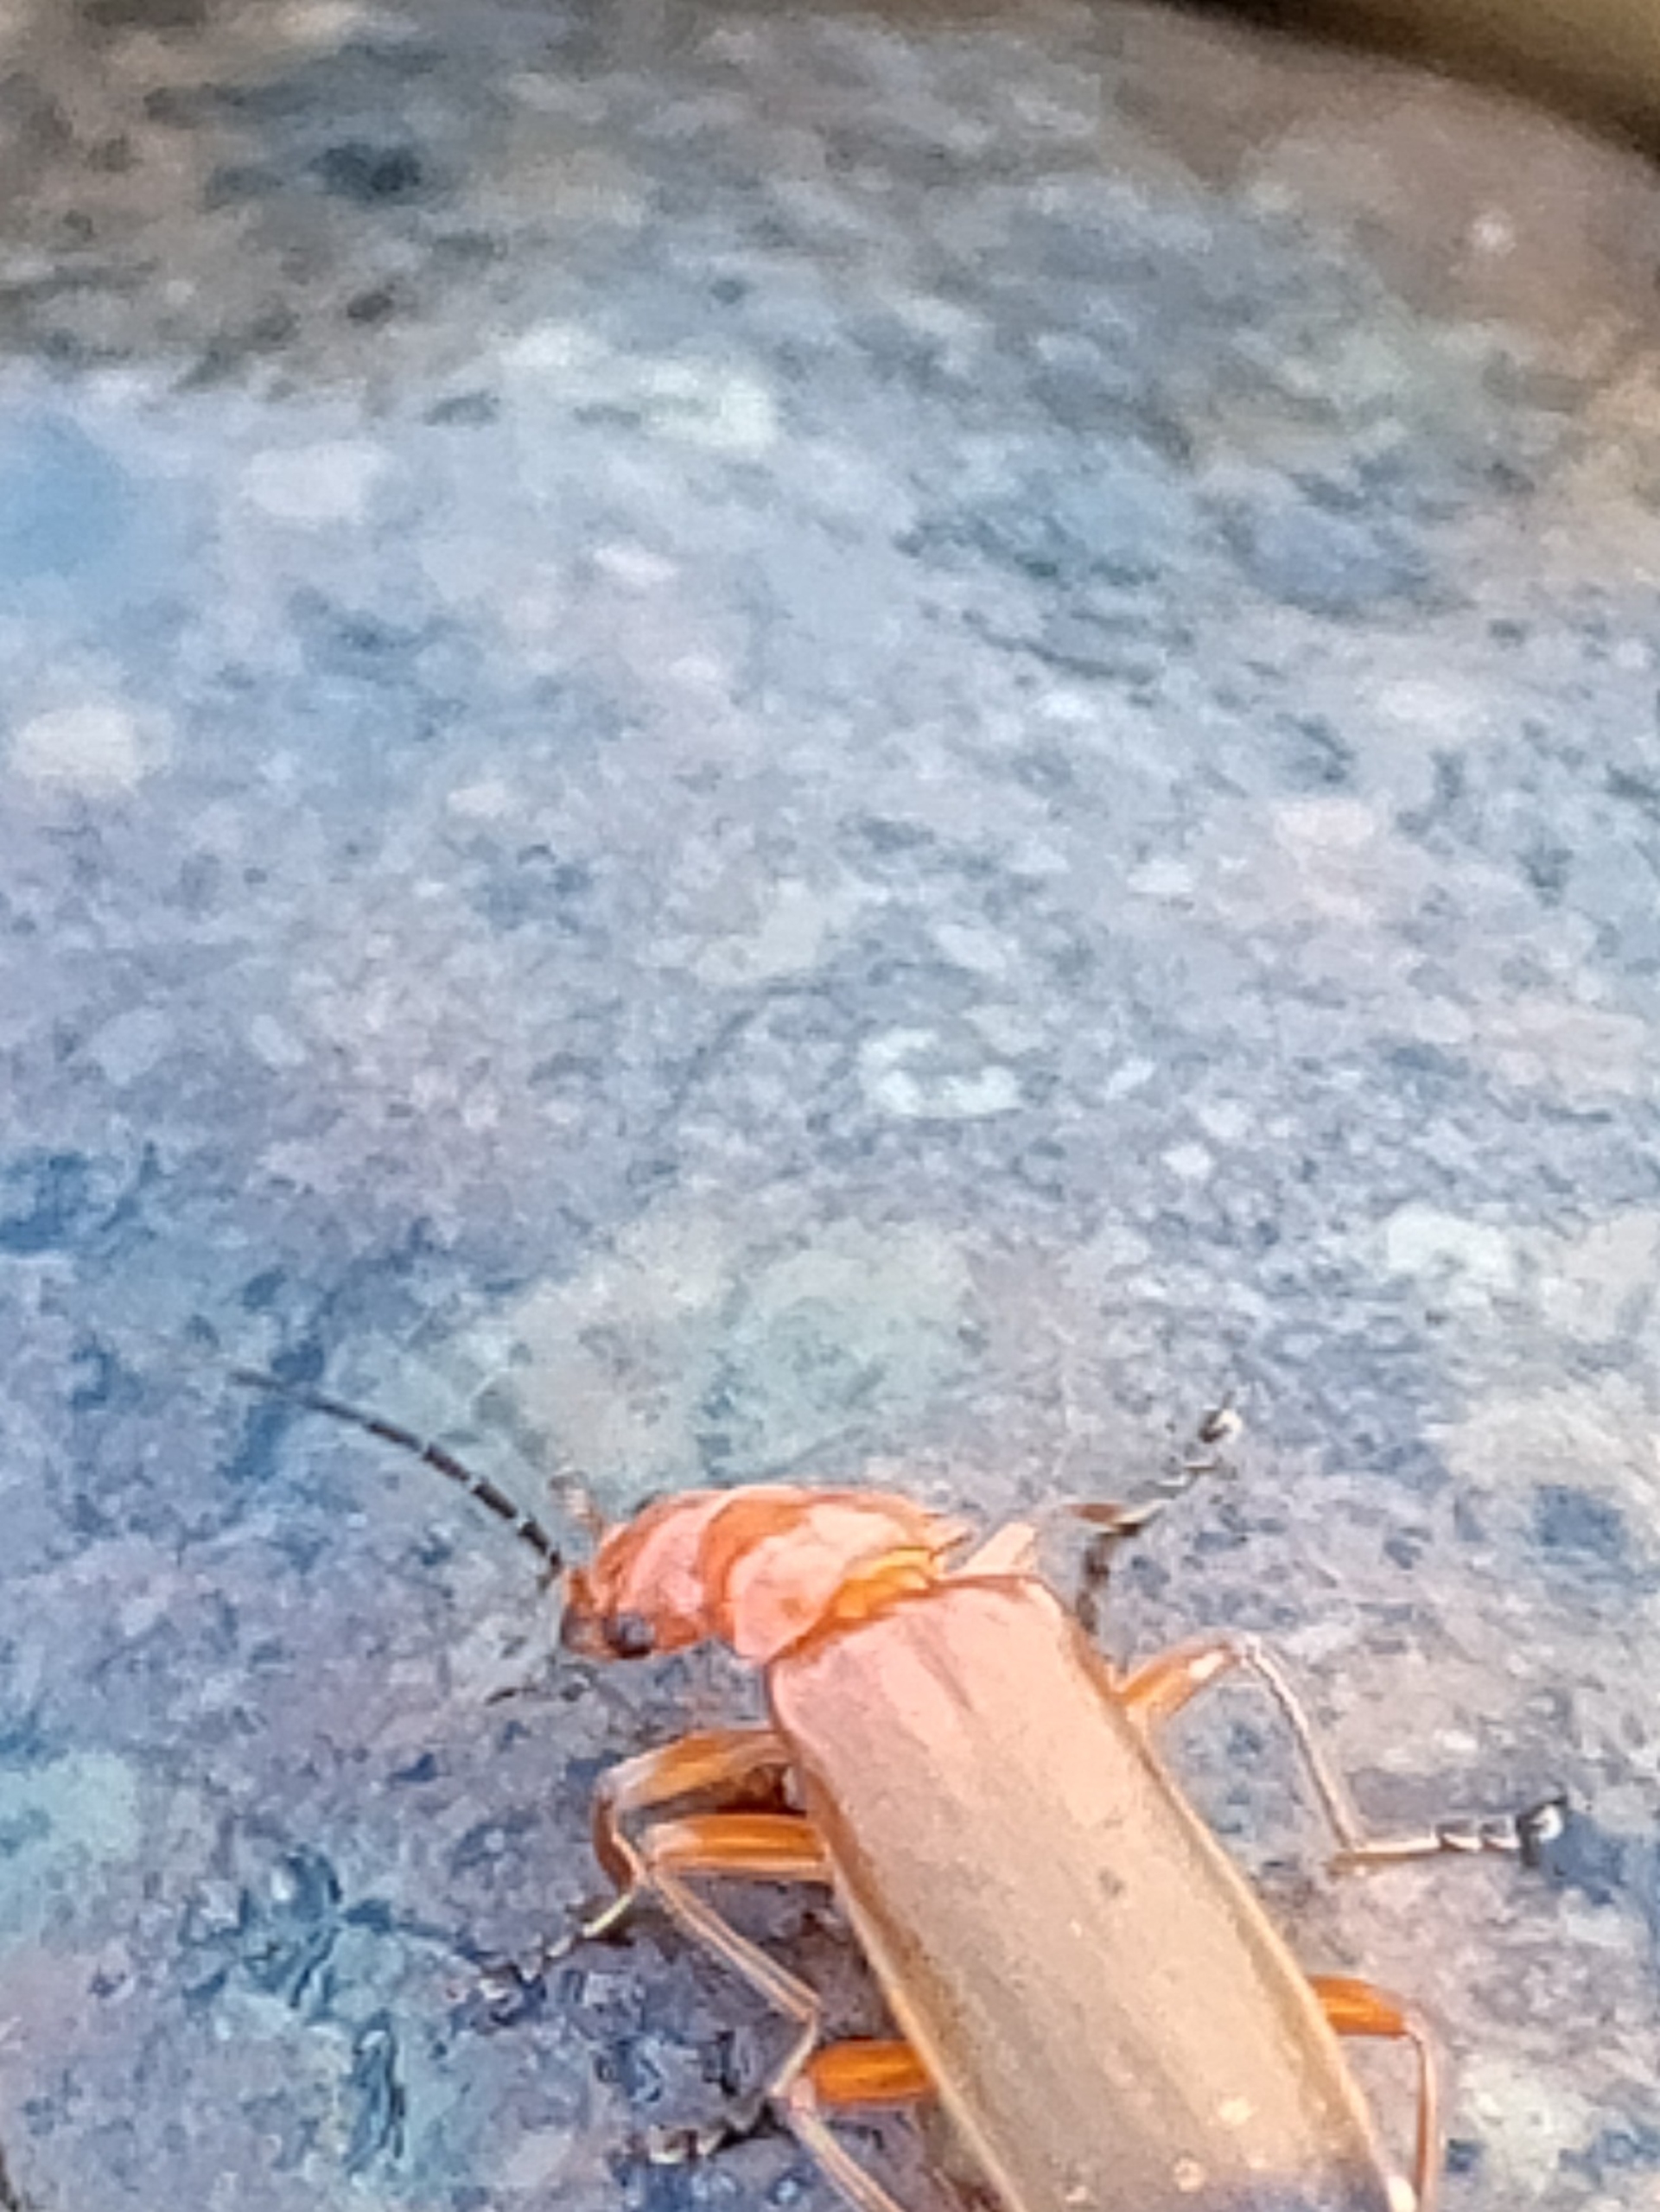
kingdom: Animalia
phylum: Arthropoda
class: Insecta
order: Coleoptera
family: Cantharidae
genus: Rhagonycha
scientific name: Rhagonycha fulva
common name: Præstebille
